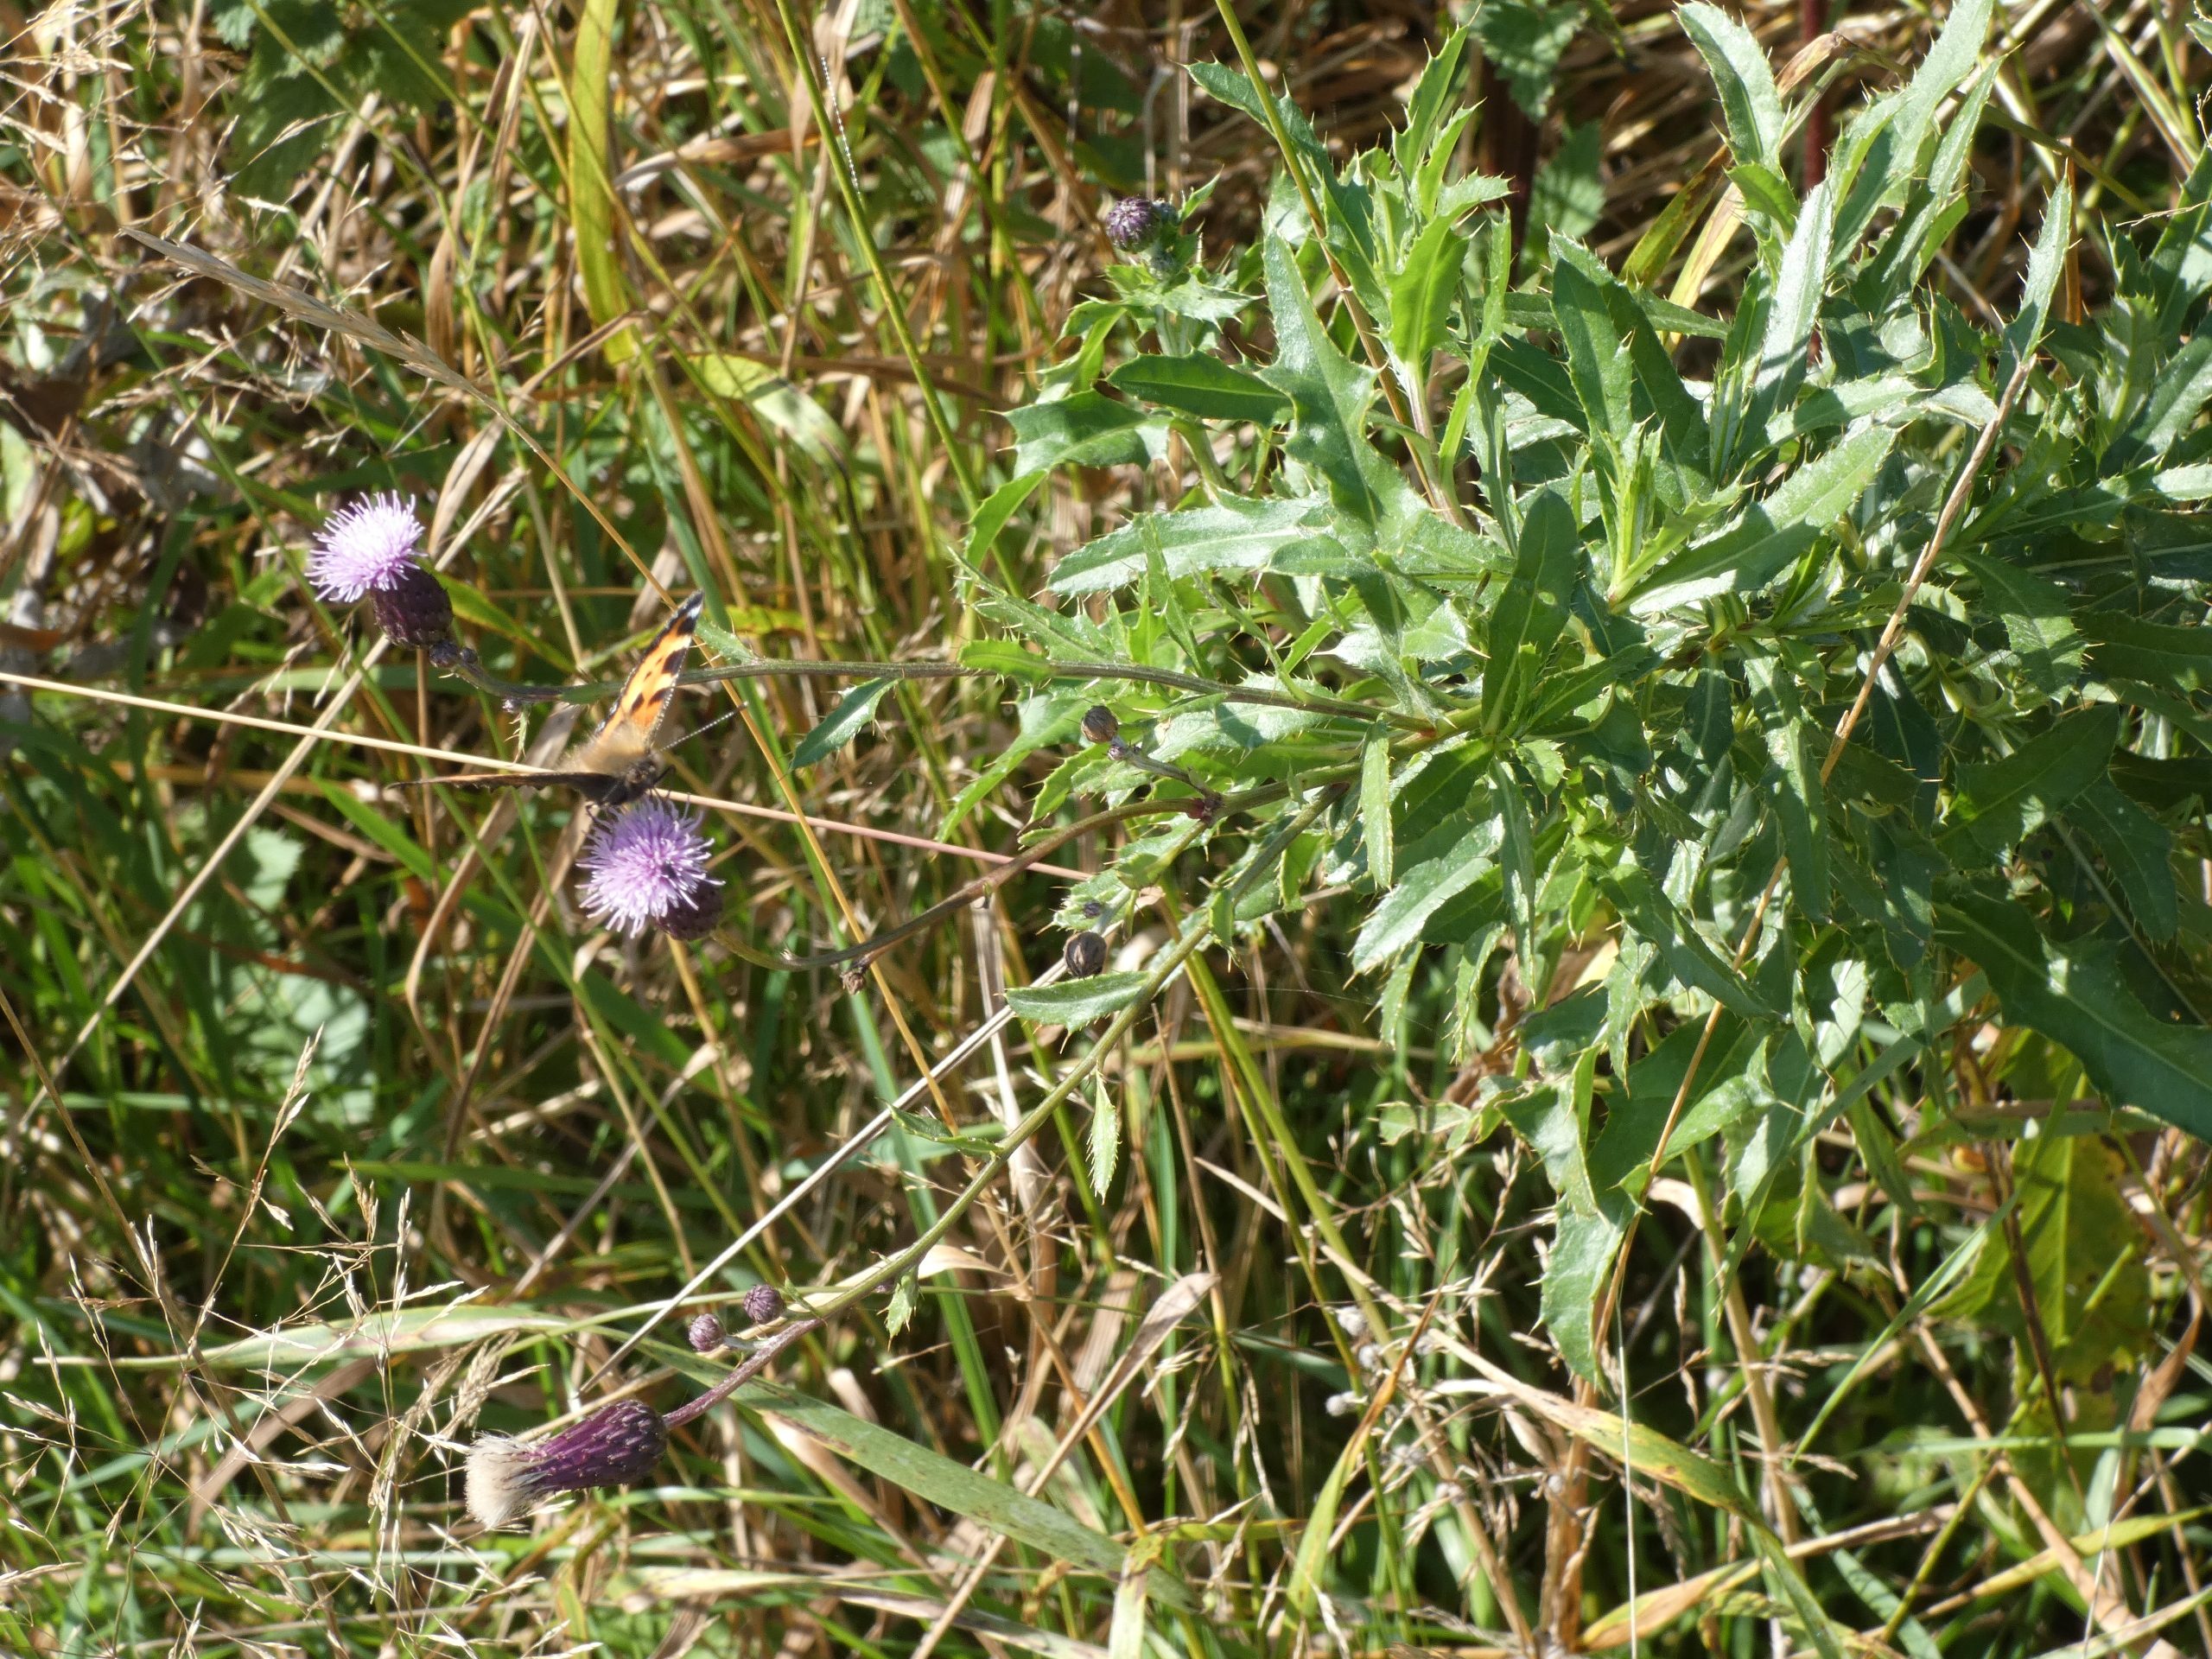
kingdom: Plantae
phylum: Tracheophyta
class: Magnoliopsida
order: Asterales
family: Asteraceae
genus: Cirsium
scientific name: Cirsium arvense
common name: Ager-tidsel
